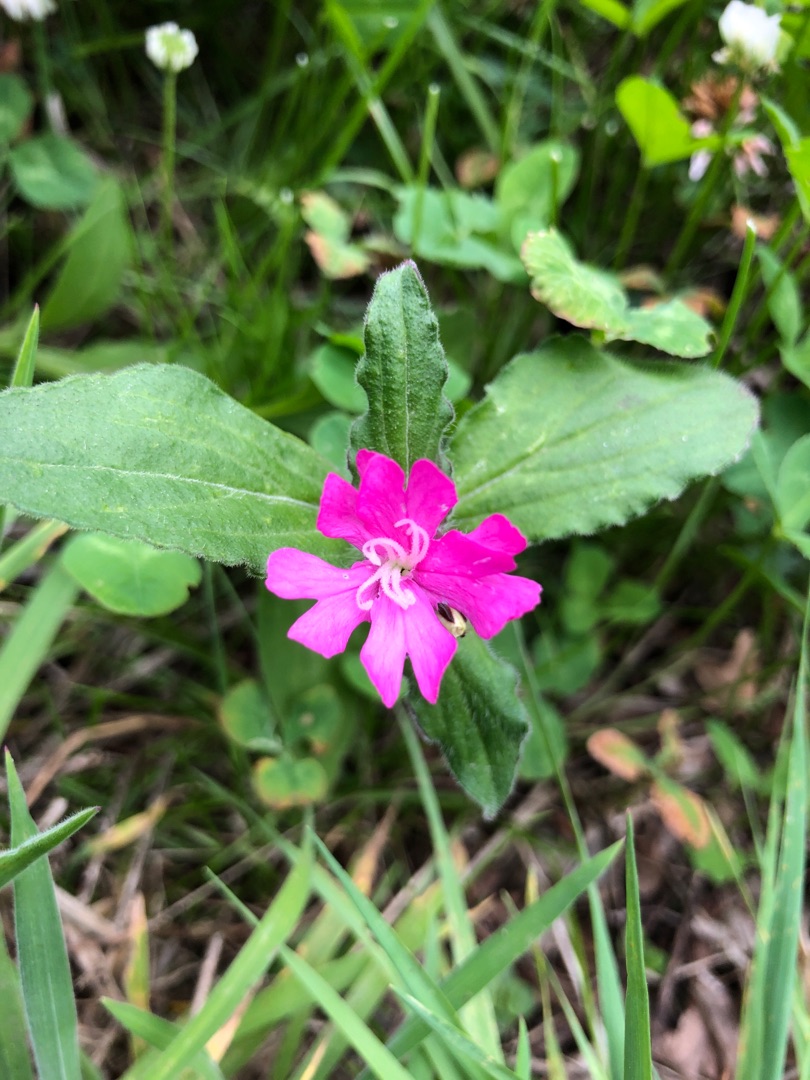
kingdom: Plantae
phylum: Tracheophyta
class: Magnoliopsida
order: Caryophyllales
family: Caryophyllaceae
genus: Silene
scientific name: Silene dioica
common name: Dagpragtstjerne
